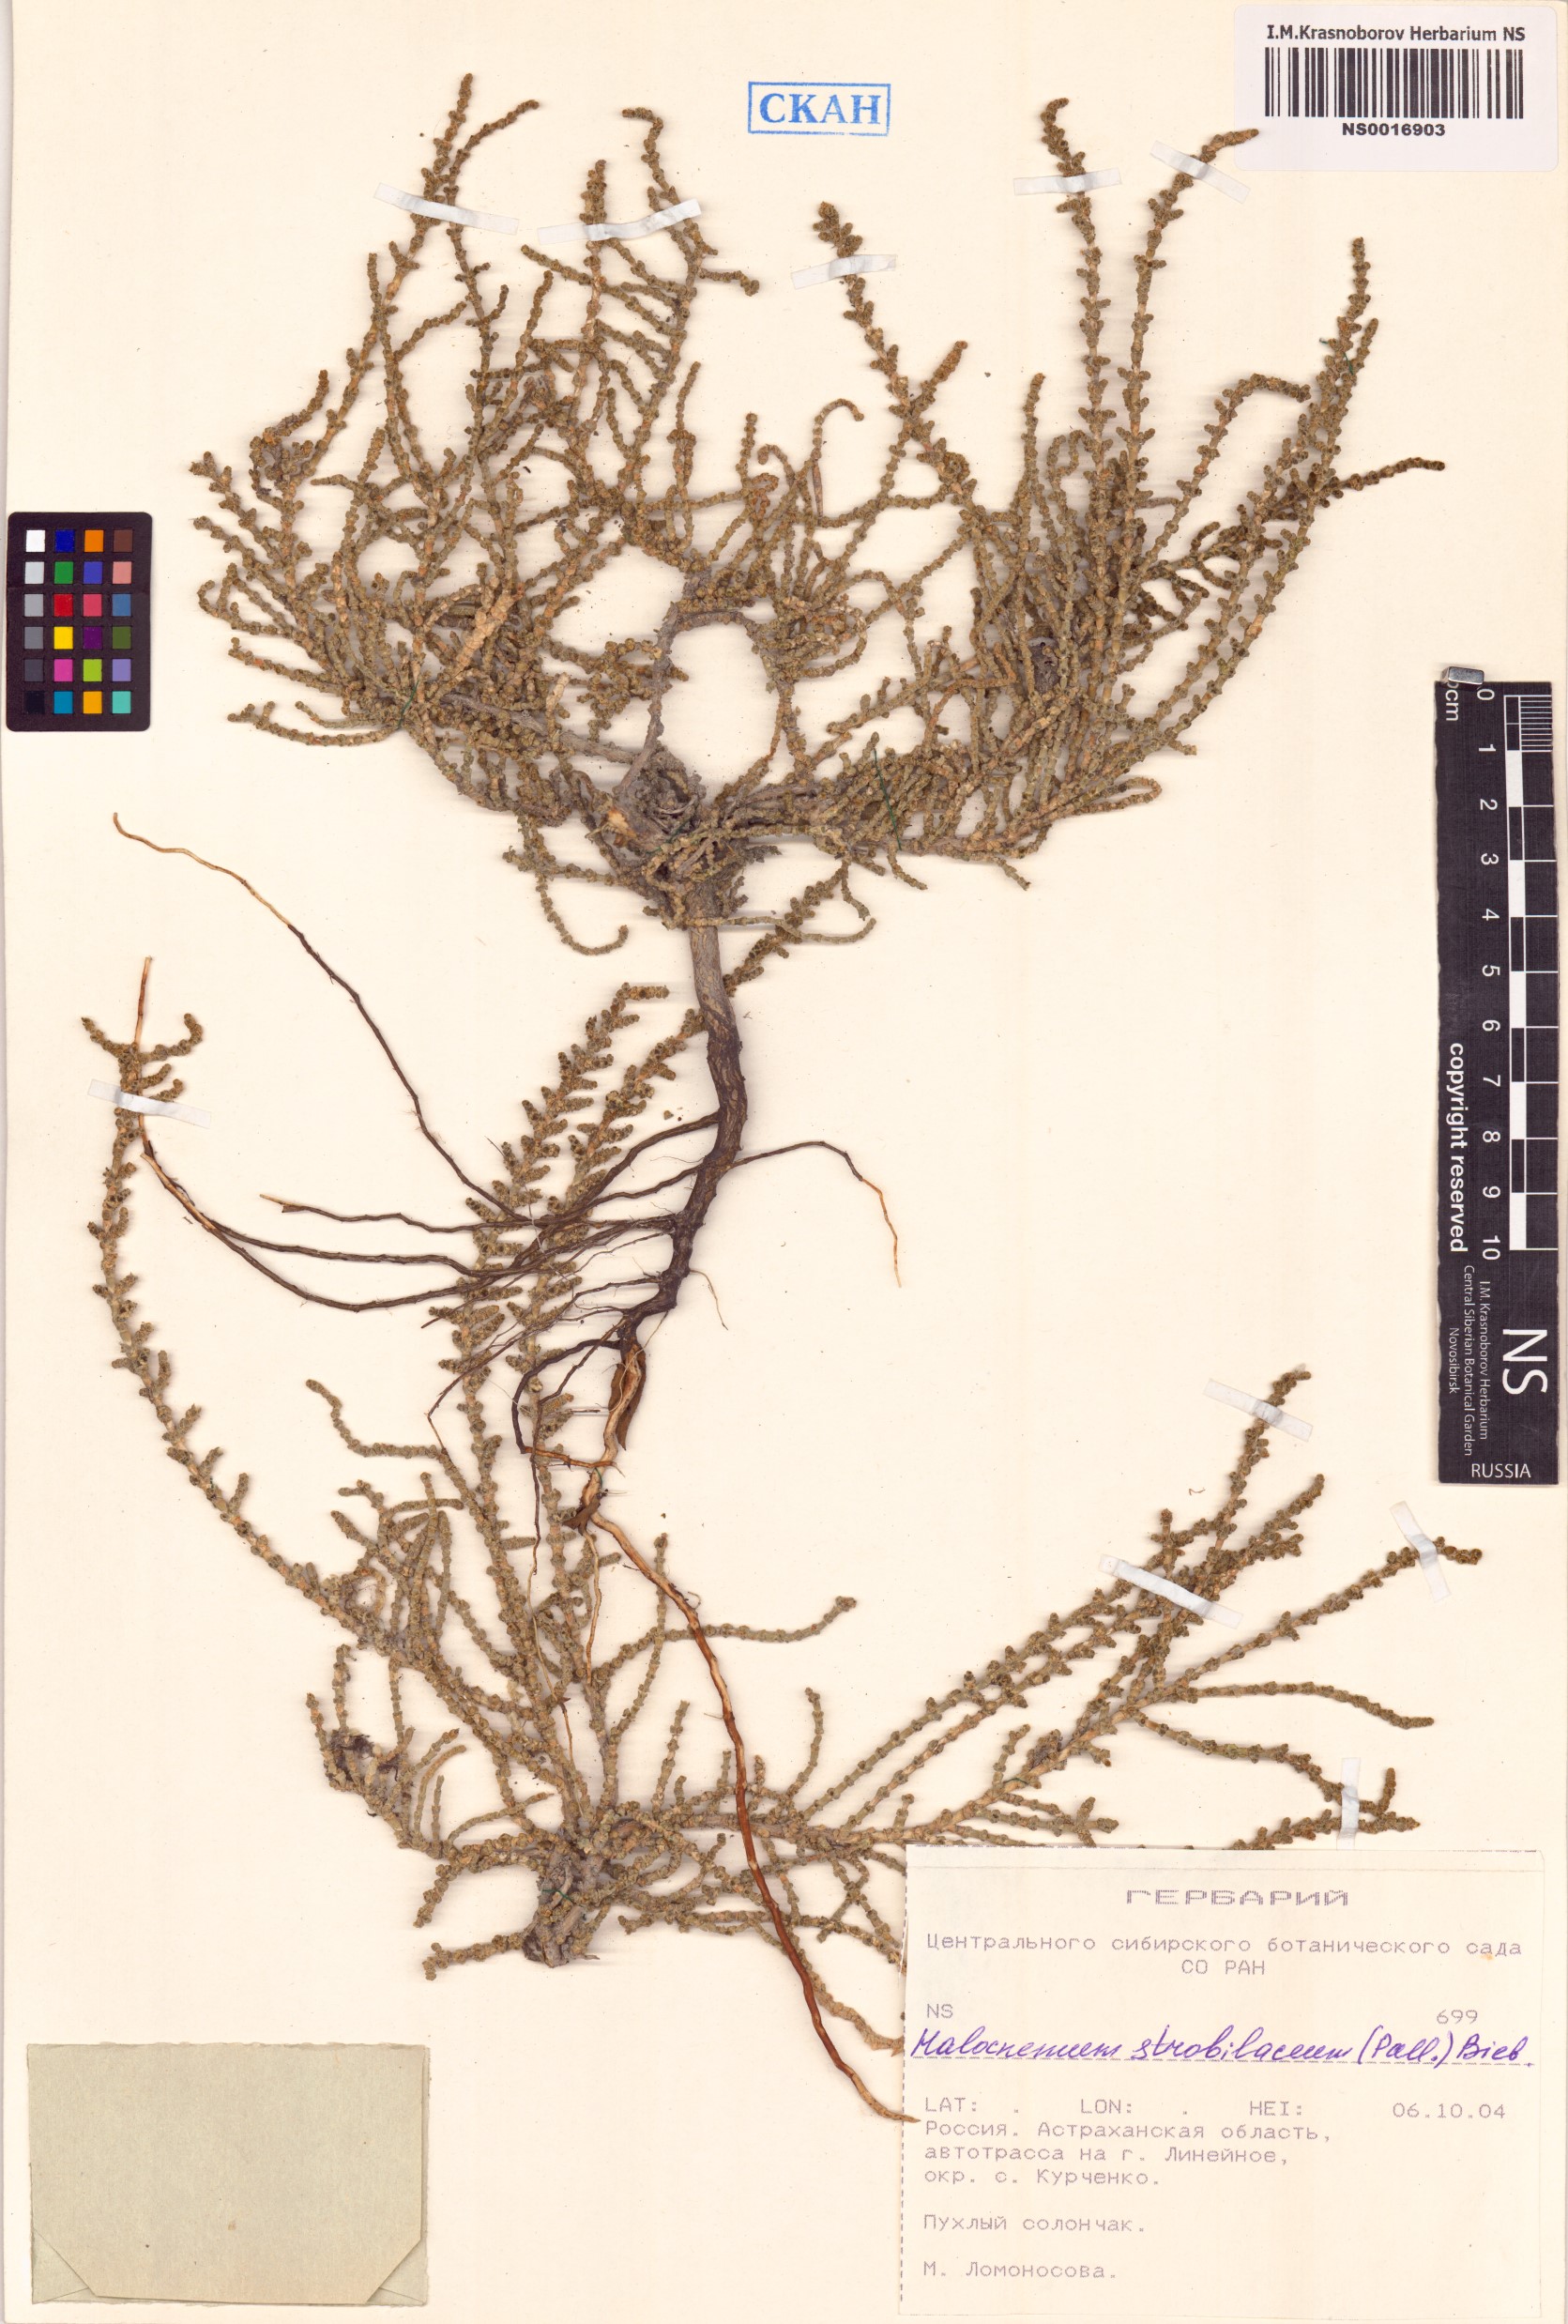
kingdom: Plantae
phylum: Tracheophyta
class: Magnoliopsida
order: Caryophyllales
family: Amaranthaceae
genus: Halocnemum
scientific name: Halocnemum strobilaceum
